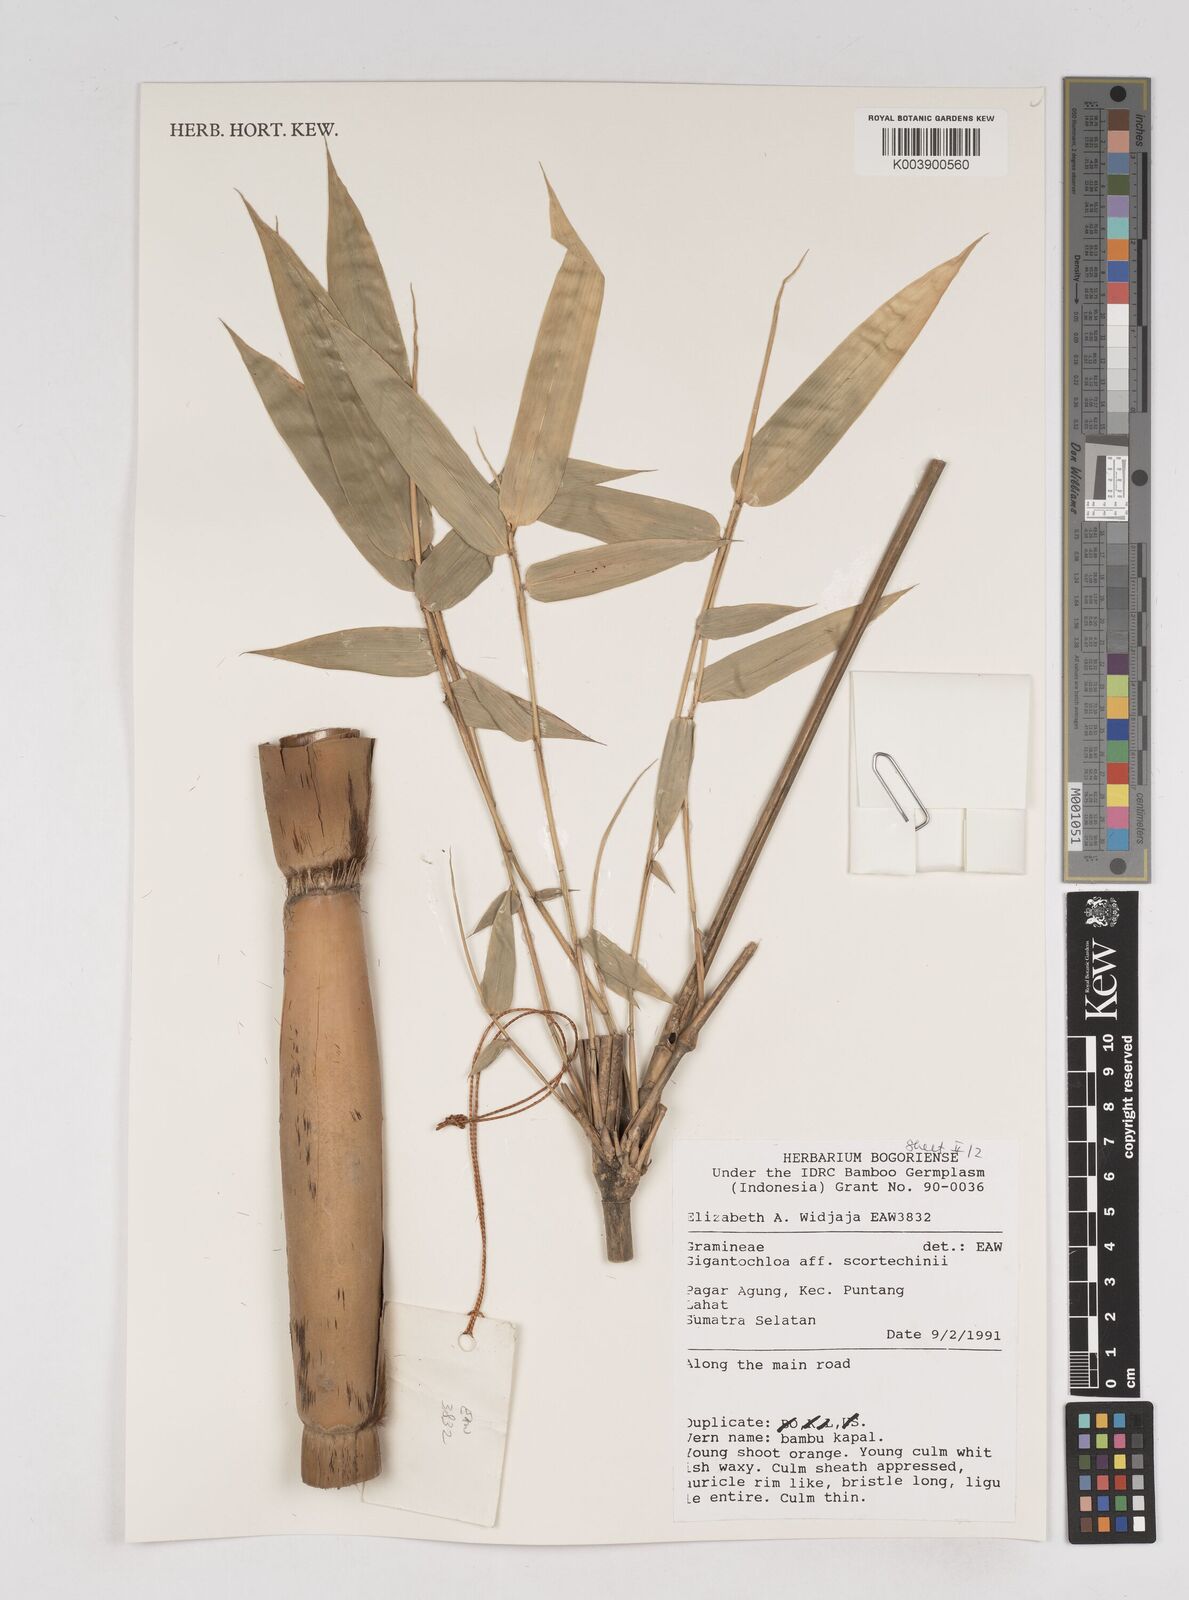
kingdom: Plantae
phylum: Tracheophyta
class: Liliopsida
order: Poales
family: Poaceae
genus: Gigantochloa
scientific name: Gigantochloa scortechinii
